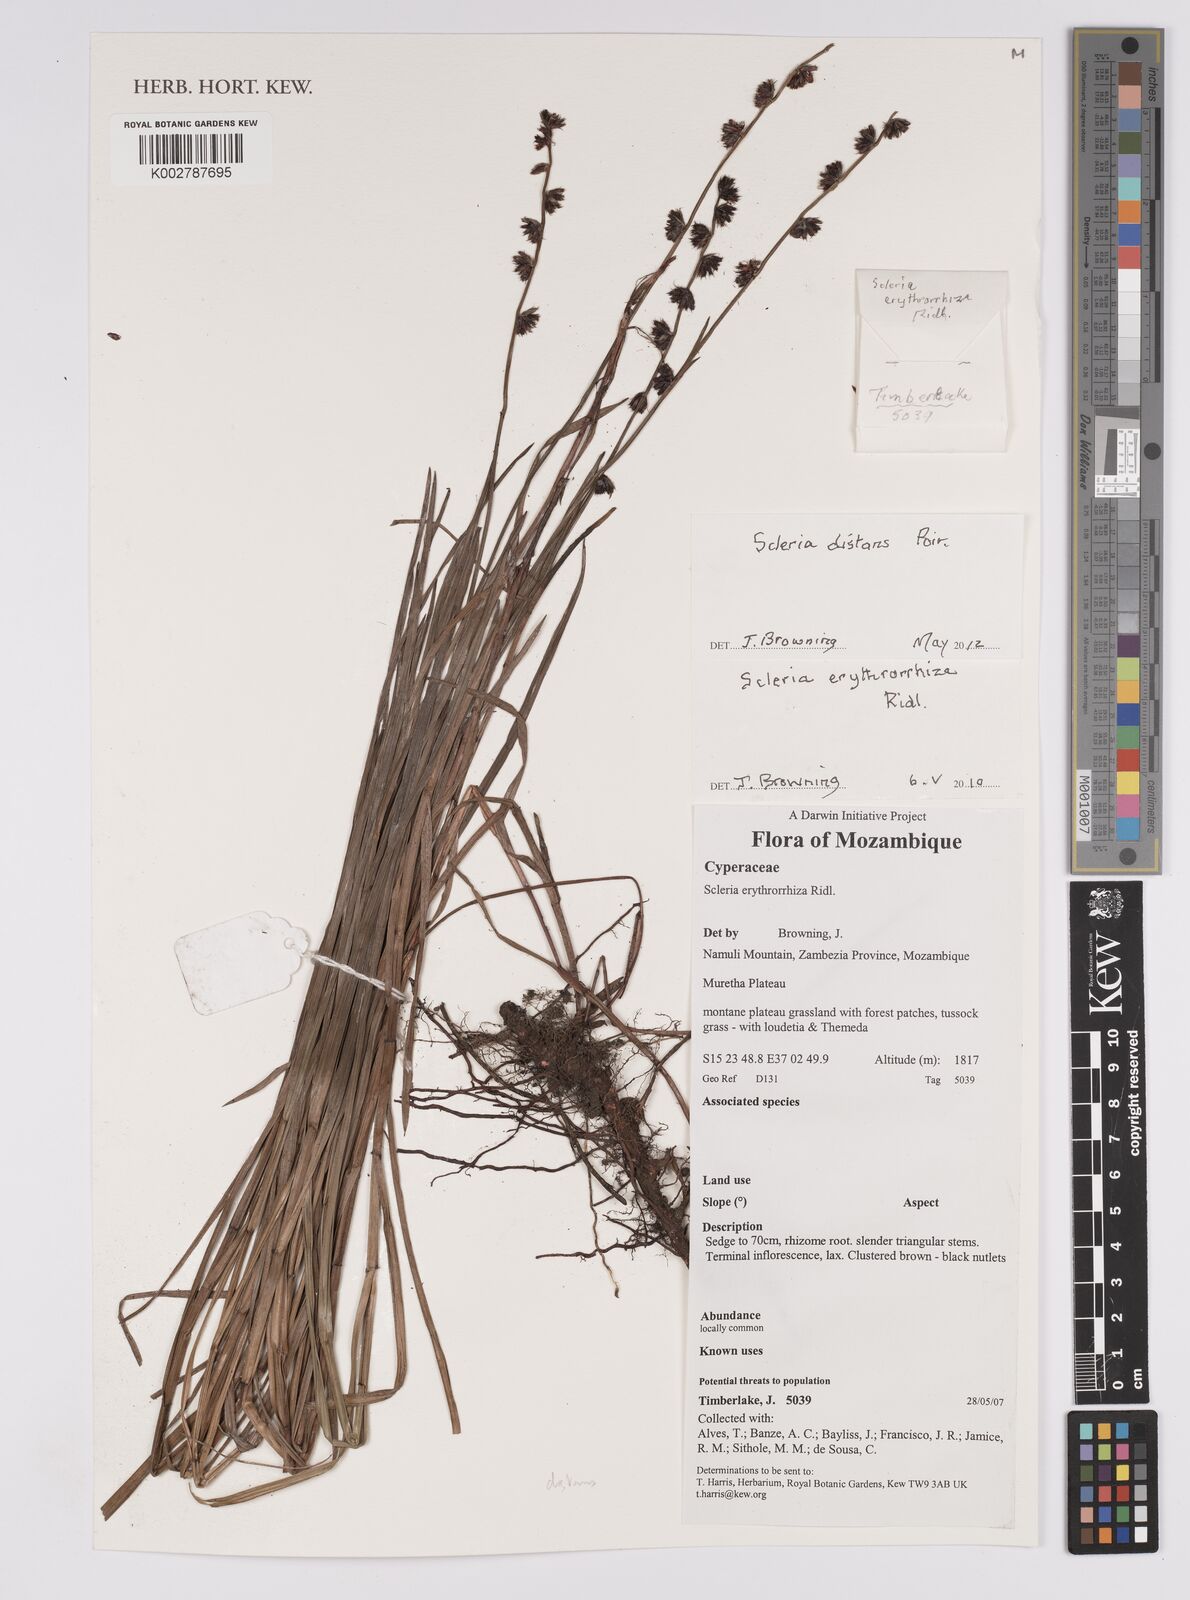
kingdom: Plantae
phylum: Tracheophyta
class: Liliopsida
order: Poales
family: Cyperaceae
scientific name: Cyperaceae
